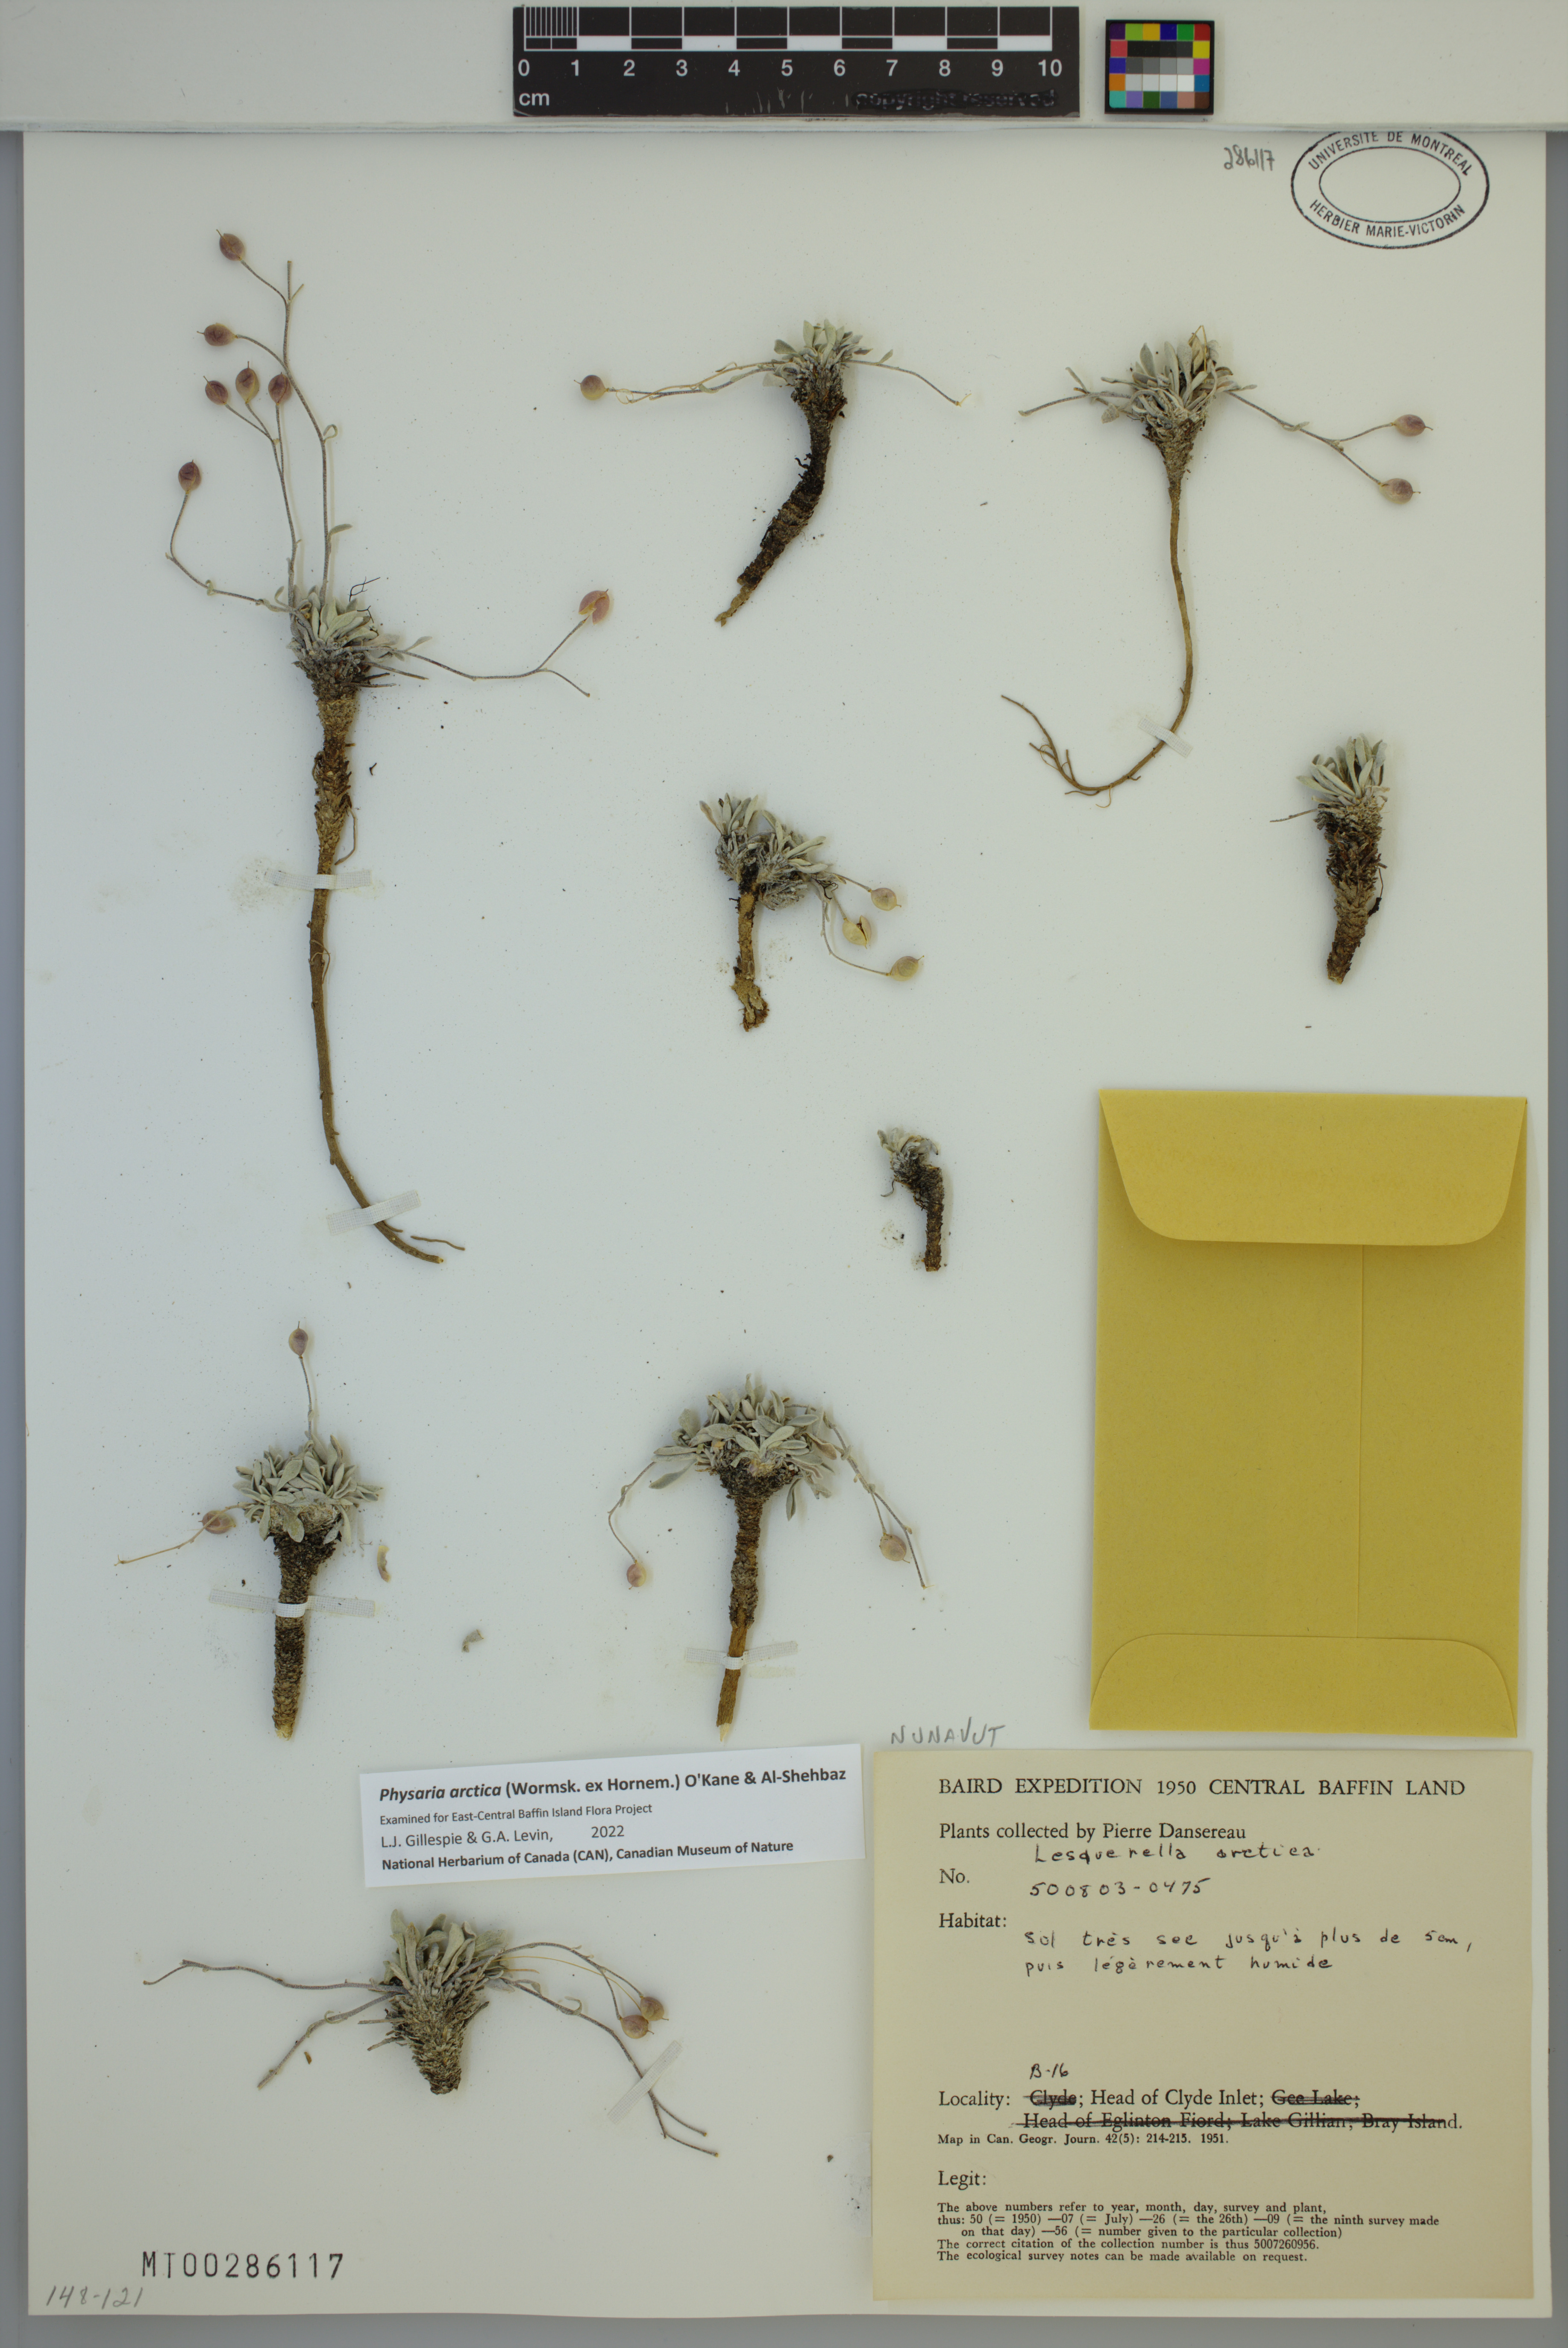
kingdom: Plantae
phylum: Tracheophyta
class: Magnoliopsida
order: Brassicales
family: Brassicaceae
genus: Physaria
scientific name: Physaria arctica
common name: Arctic bladderpod
